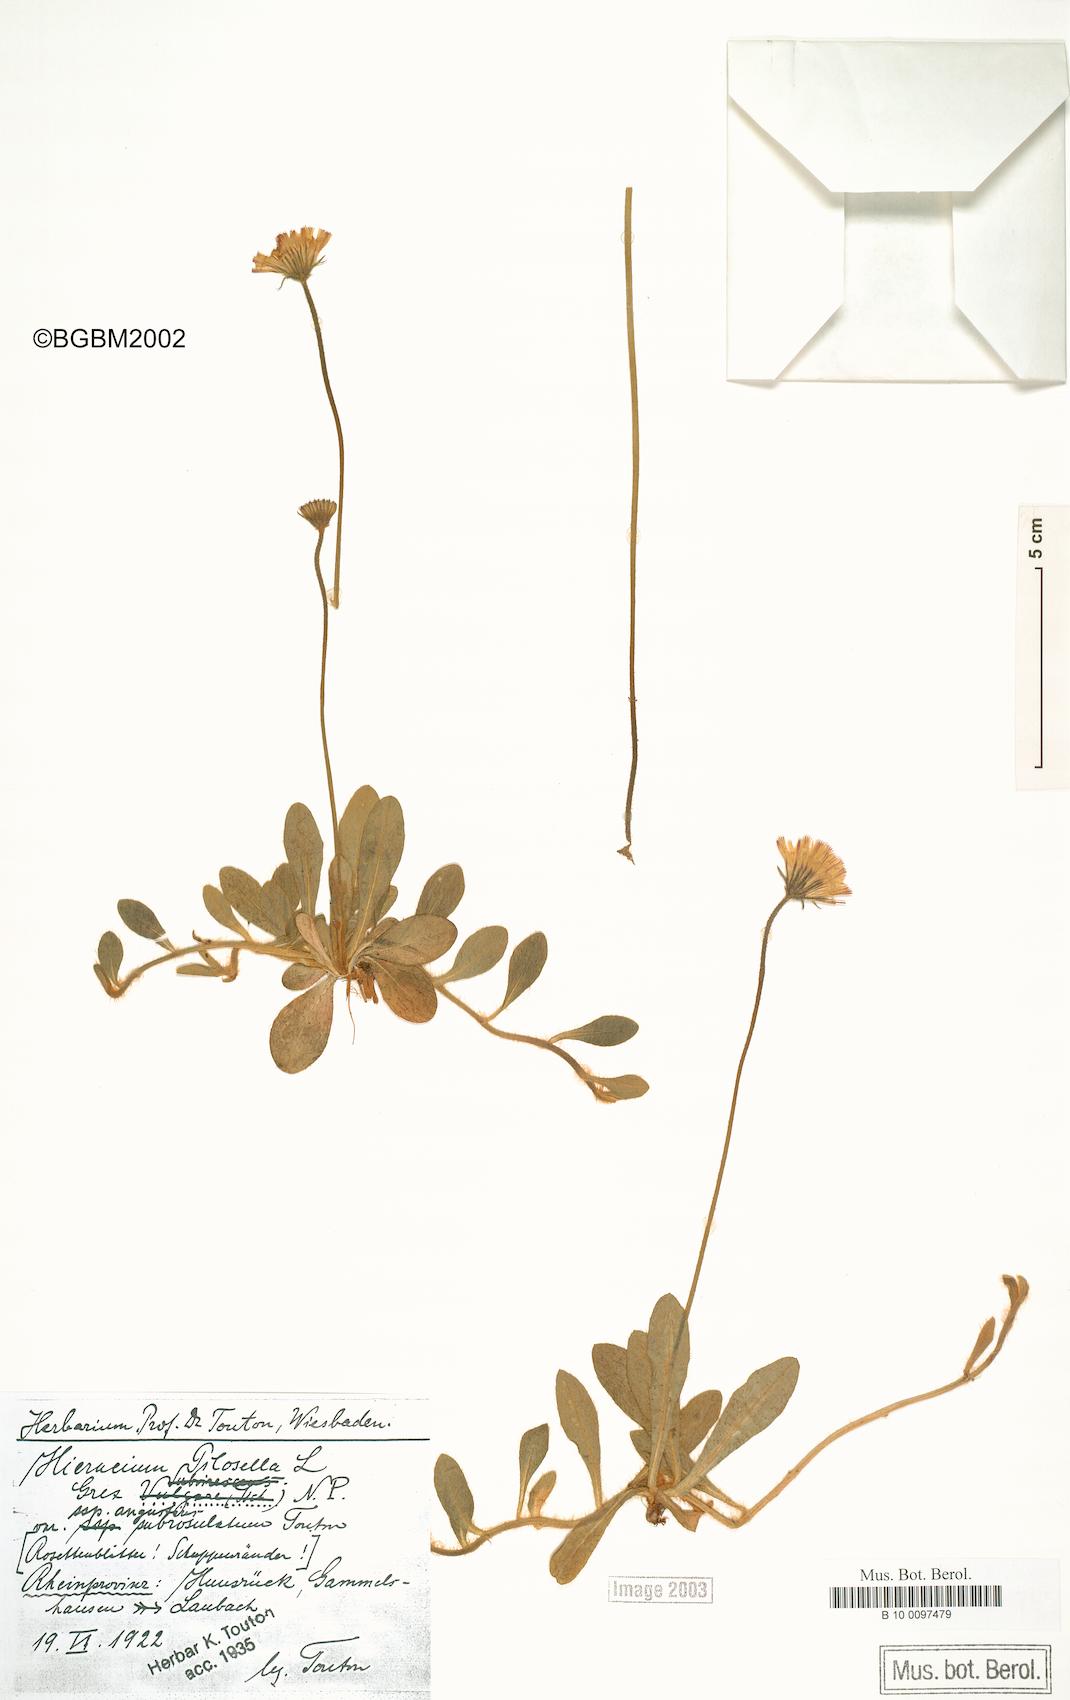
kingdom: Plantae
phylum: Tracheophyta
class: Magnoliopsida
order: Asterales
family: Asteraceae
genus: Pilosella
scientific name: Pilosella officinarum
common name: Mouse-ear hawkweed
